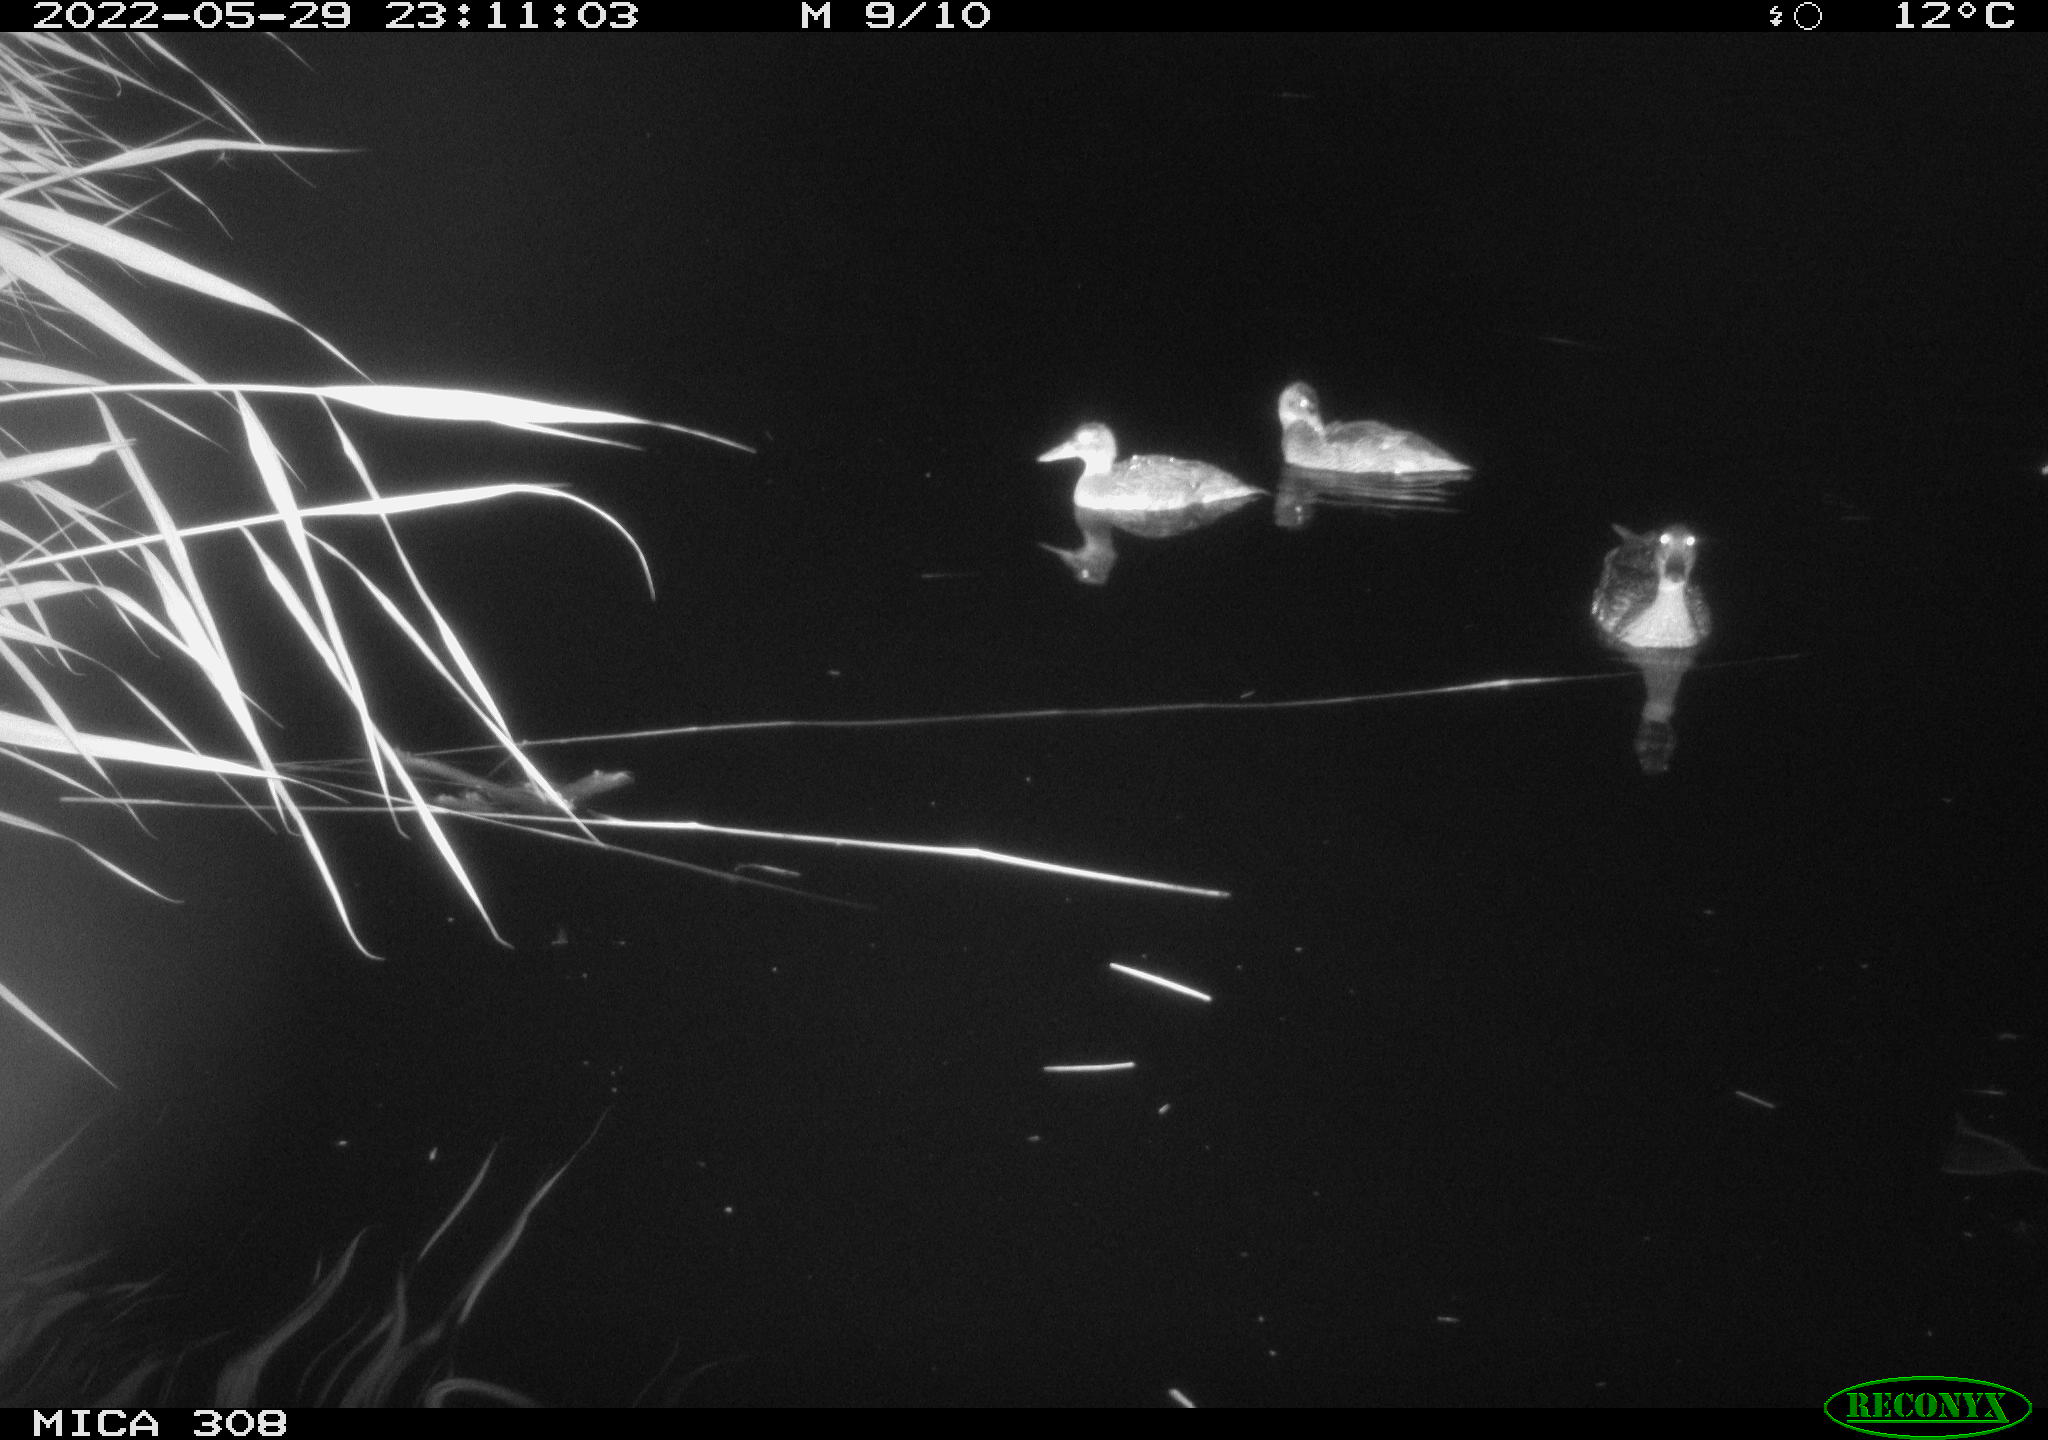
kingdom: Animalia
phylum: Chordata
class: Aves
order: Anseriformes
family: Anatidae
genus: Anas
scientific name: Anas platyrhynchos
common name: Mallard
